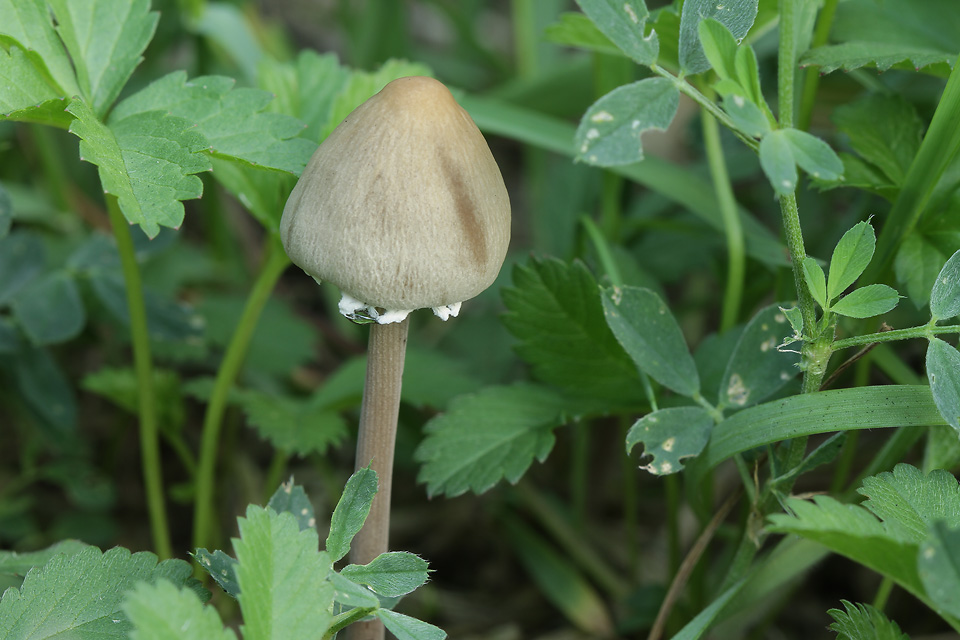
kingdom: Fungi
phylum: Basidiomycota
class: Agaricomycetes
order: Agaricales
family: Bolbitiaceae
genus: Panaeolus
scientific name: Panaeolus papilionaceus
